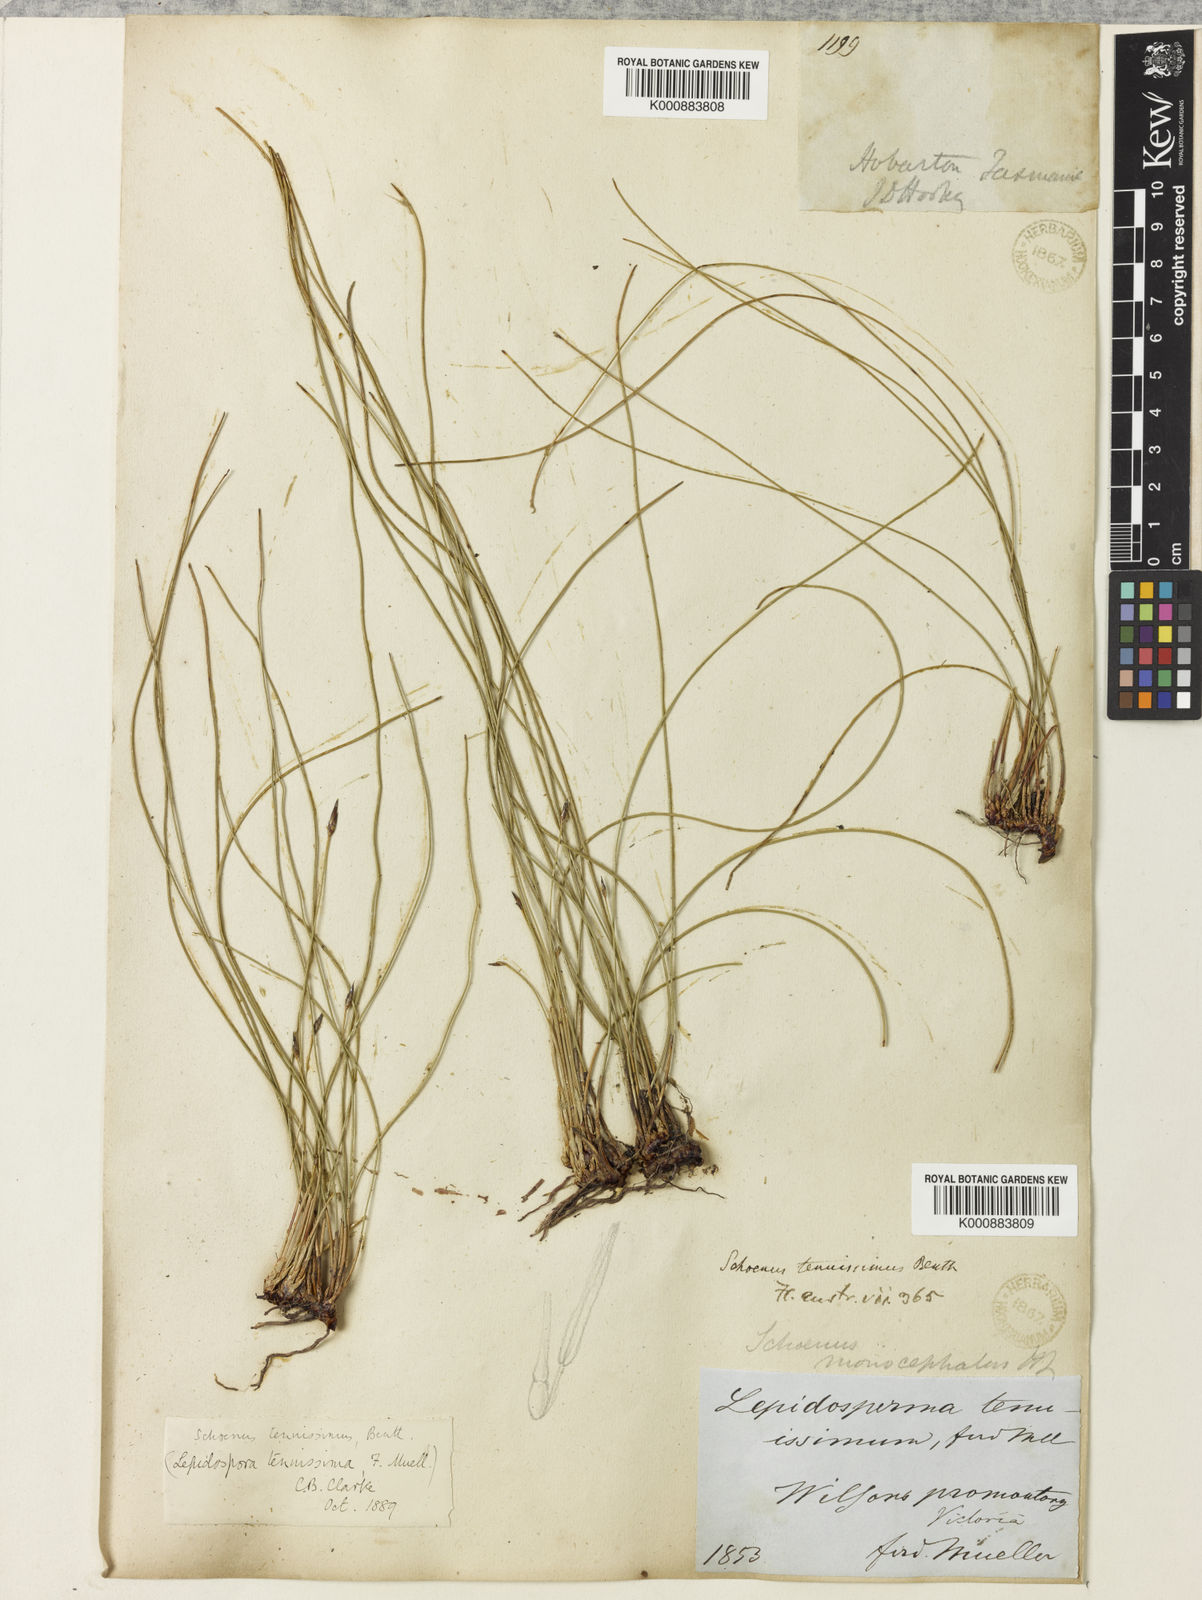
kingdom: Plantae
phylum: Tracheophyta
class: Liliopsida
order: Poales
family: Cyperaceae
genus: Schoenus
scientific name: Schoenus tenuissimus
